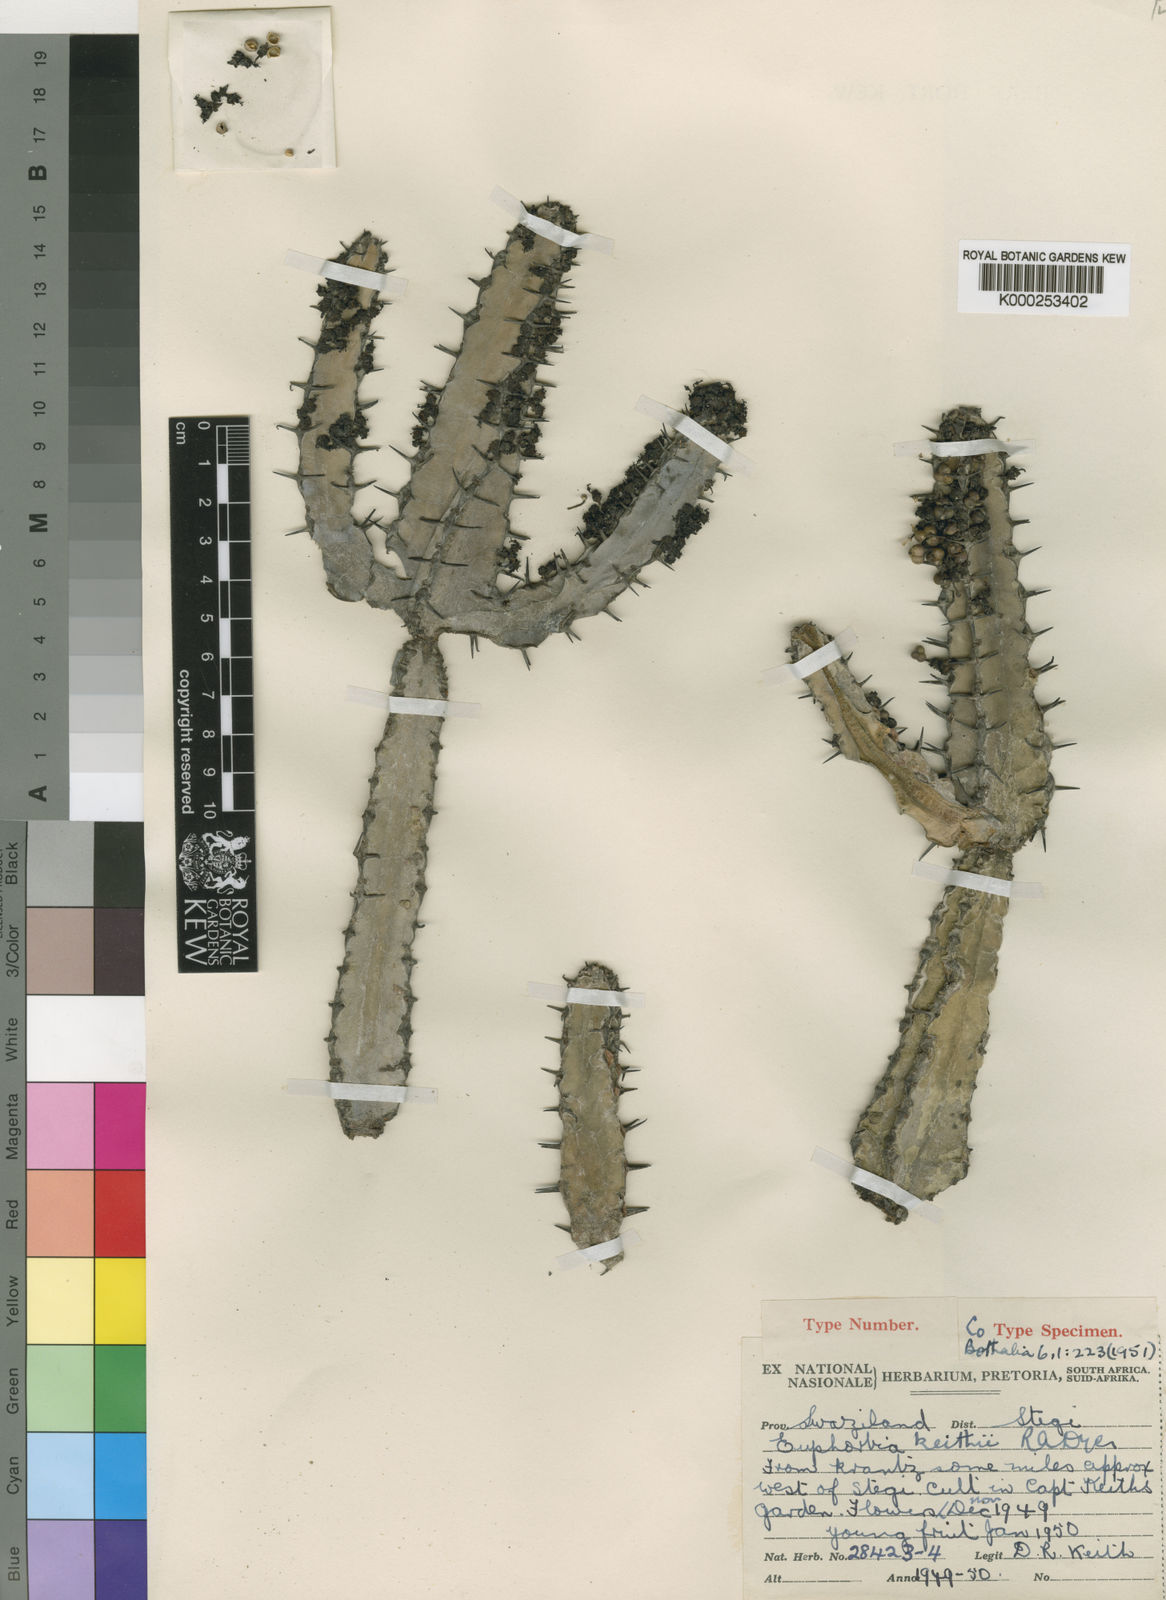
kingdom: Plantae
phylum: Tracheophyta
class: Magnoliopsida
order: Malpighiales
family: Euphorbiaceae
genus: Euphorbia
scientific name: Euphorbia keithii
